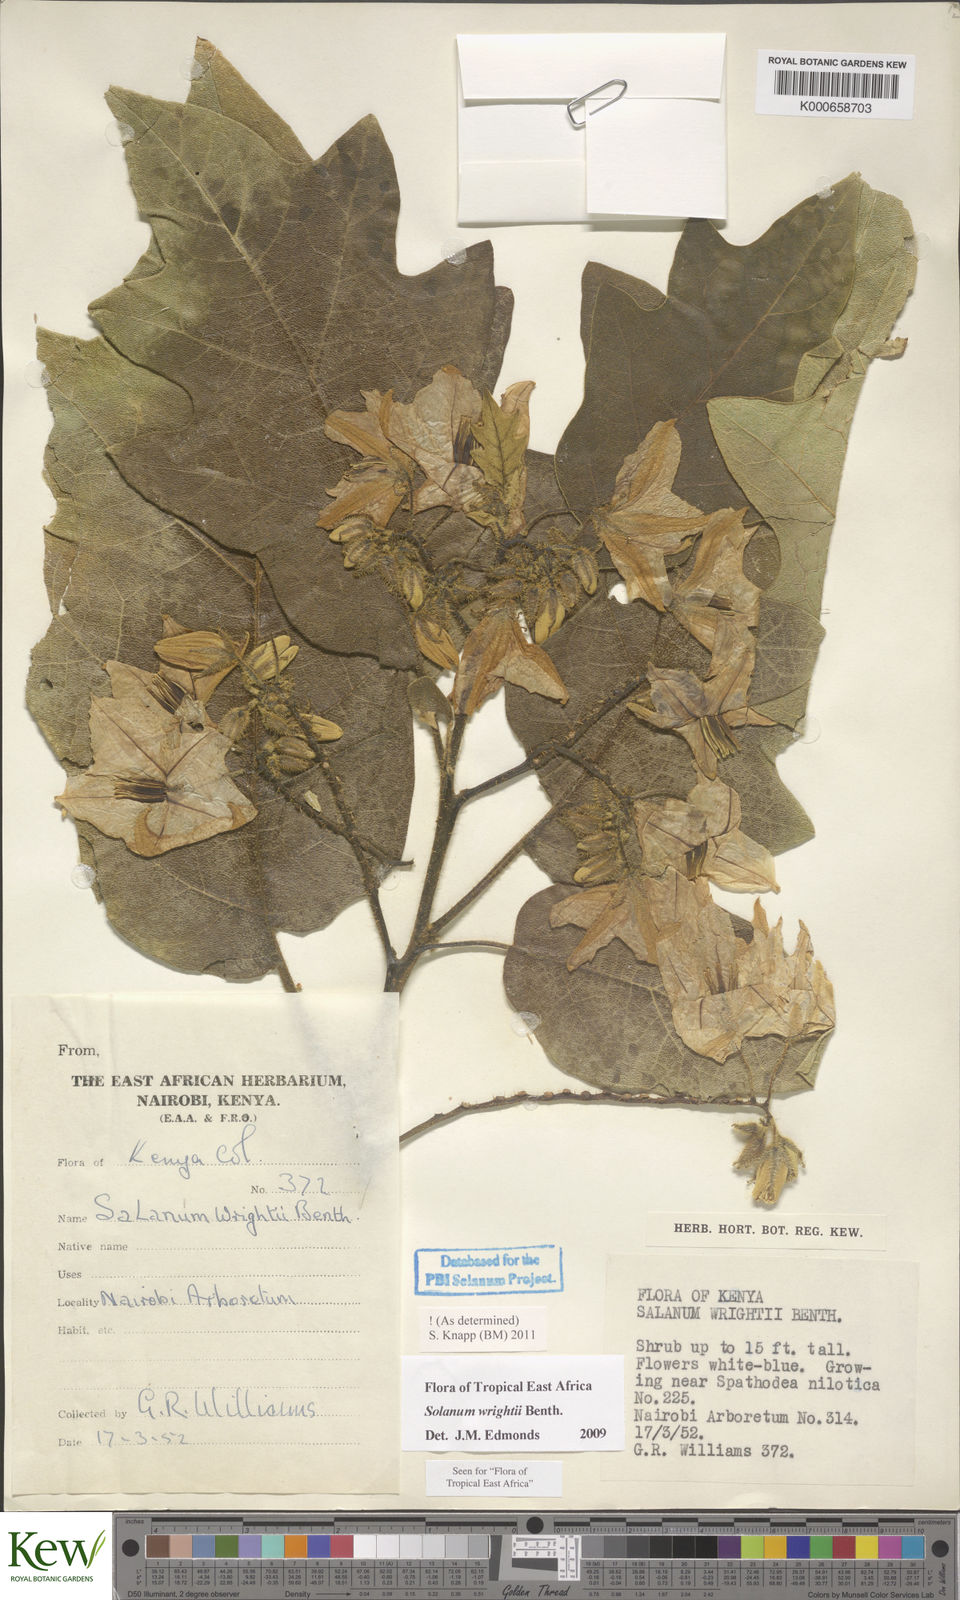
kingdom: Plantae
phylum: Tracheophyta
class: Magnoliopsida
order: Solanales
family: Solanaceae
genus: Solanum
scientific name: Solanum wrightii
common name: Brazilian potato-tree
